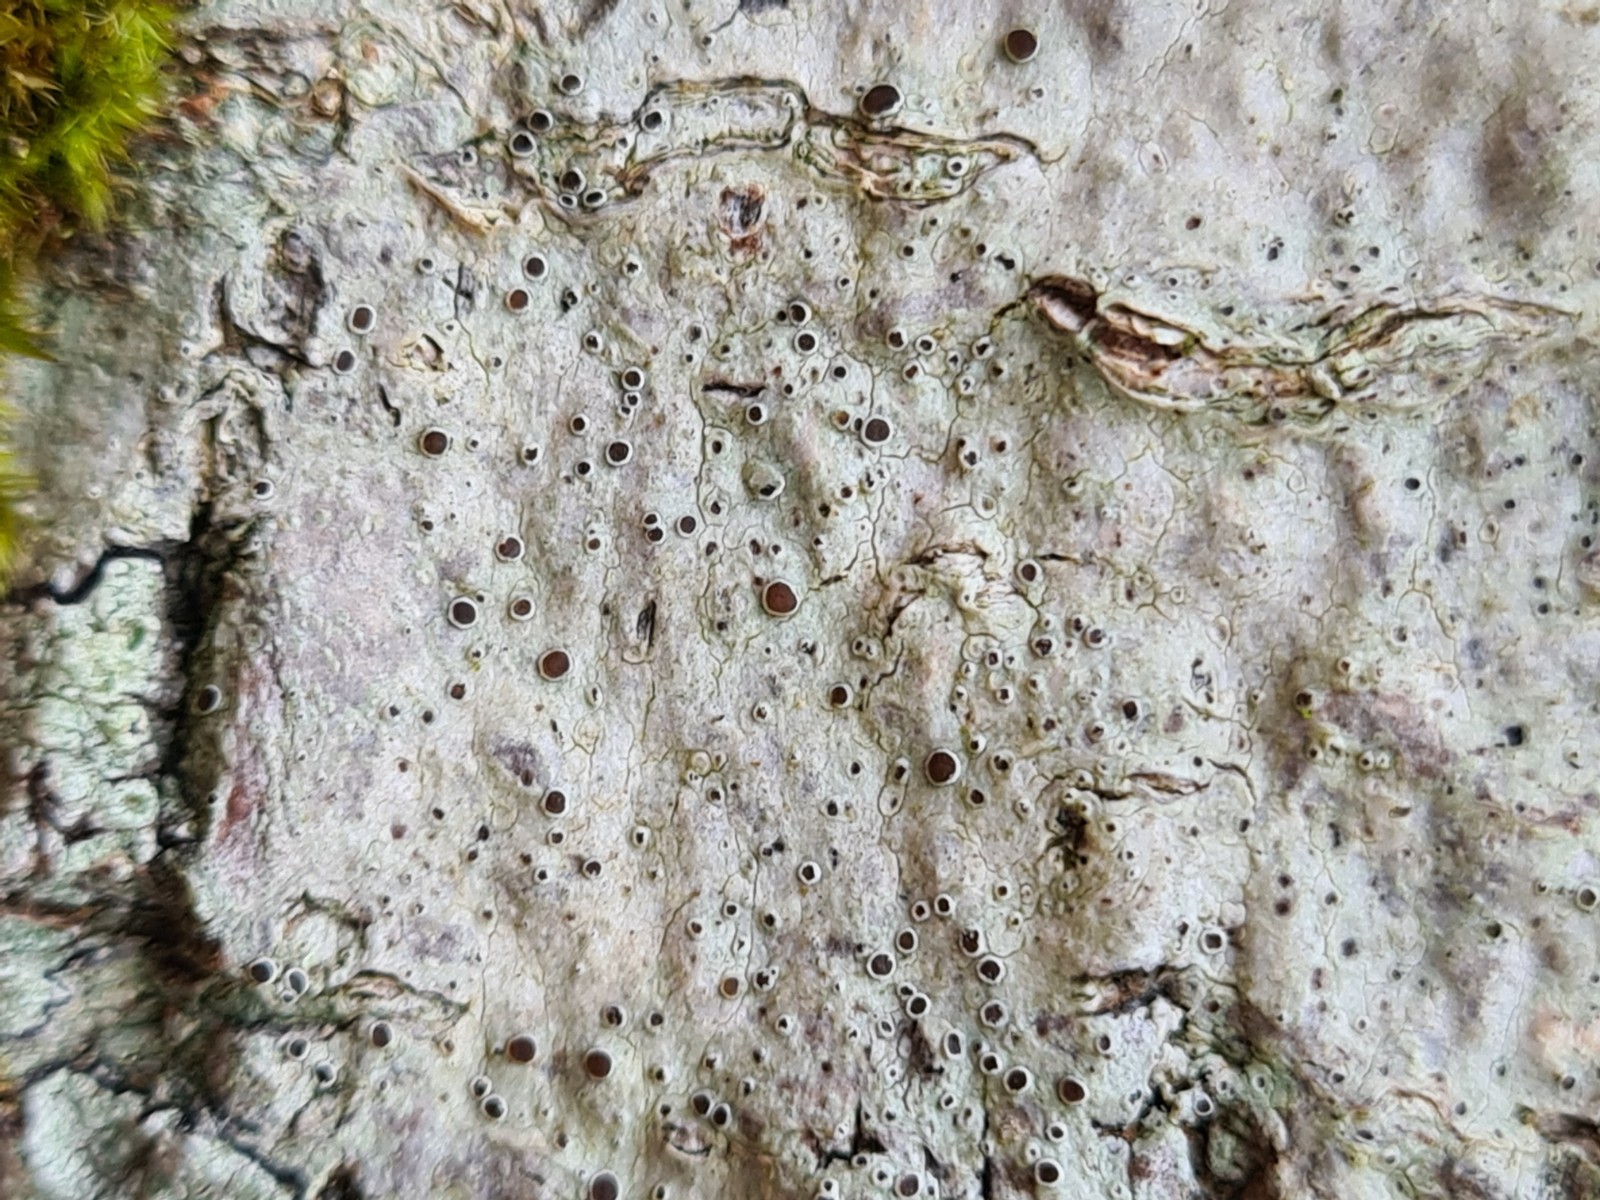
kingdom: Fungi
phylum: Ascomycota
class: Lecanoromycetes
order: Lecanorales
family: Lecanoraceae
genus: Lecanora
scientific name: Lecanora
